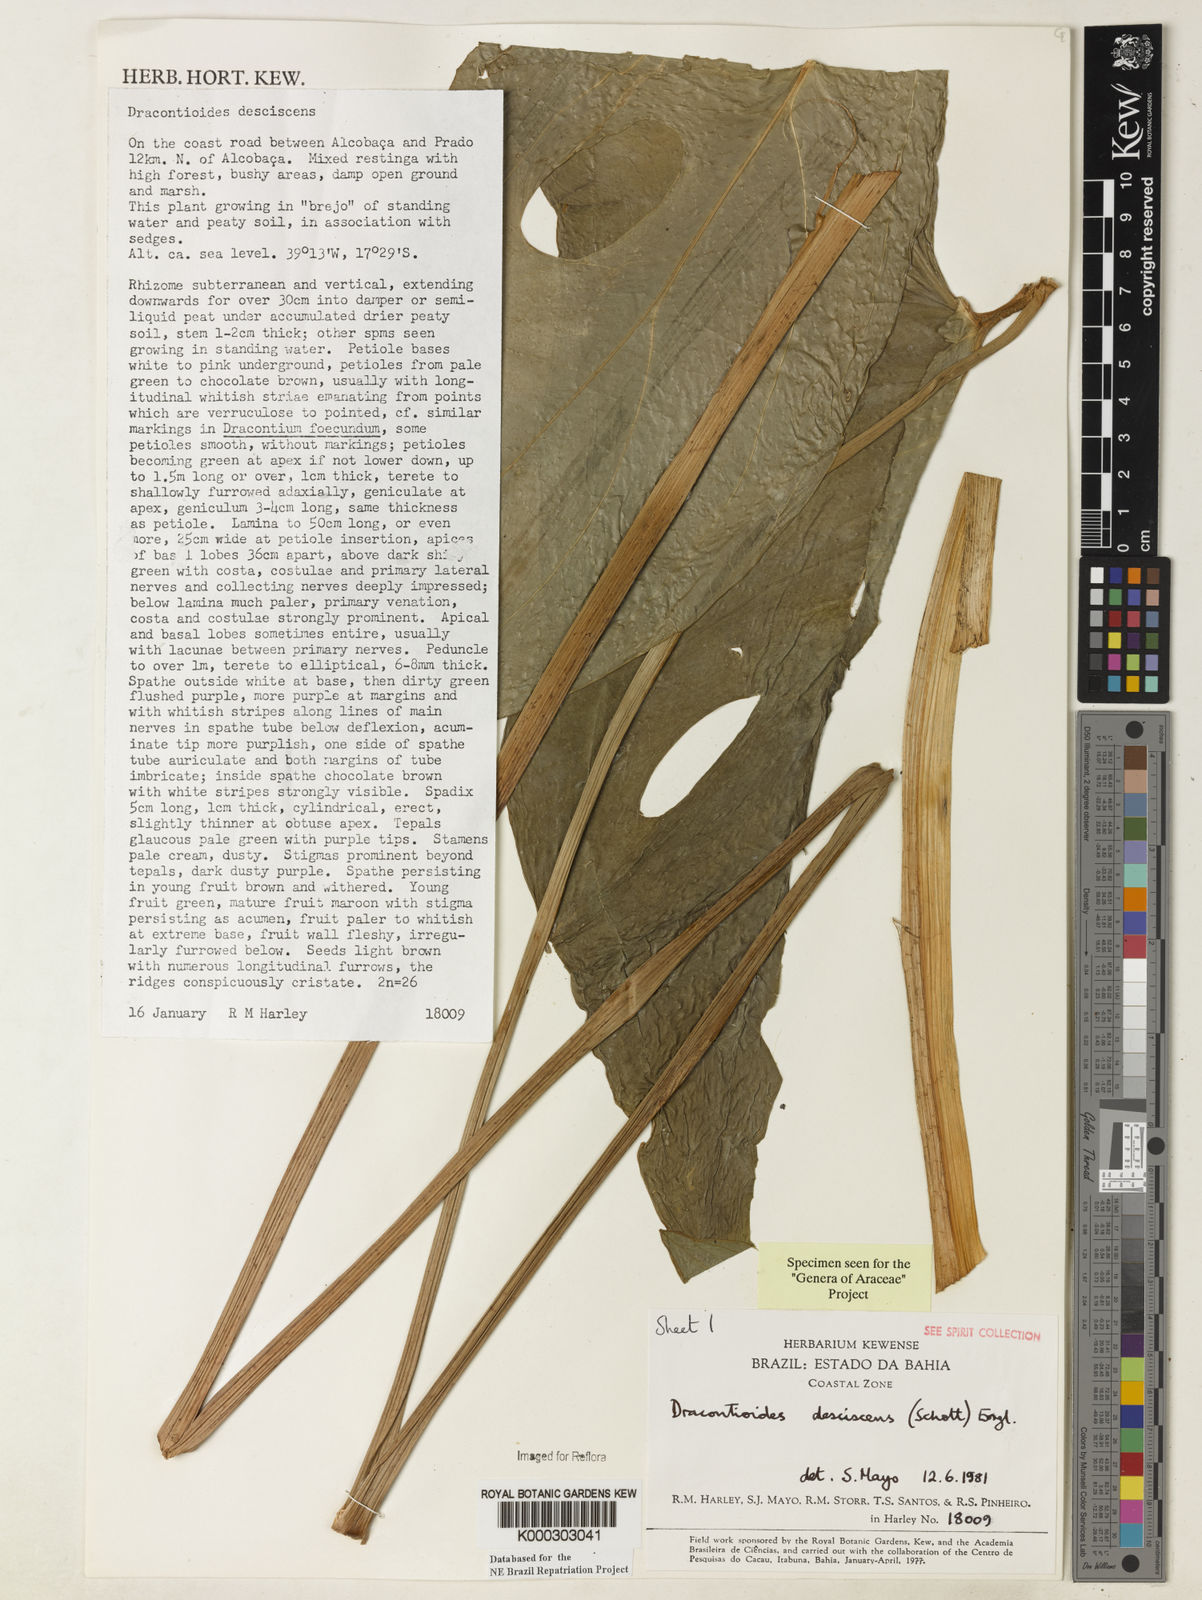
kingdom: Plantae
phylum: Tracheophyta
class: Liliopsida
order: Alismatales
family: Araceae
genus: Dracontioides
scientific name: Dracontioides desciscens
